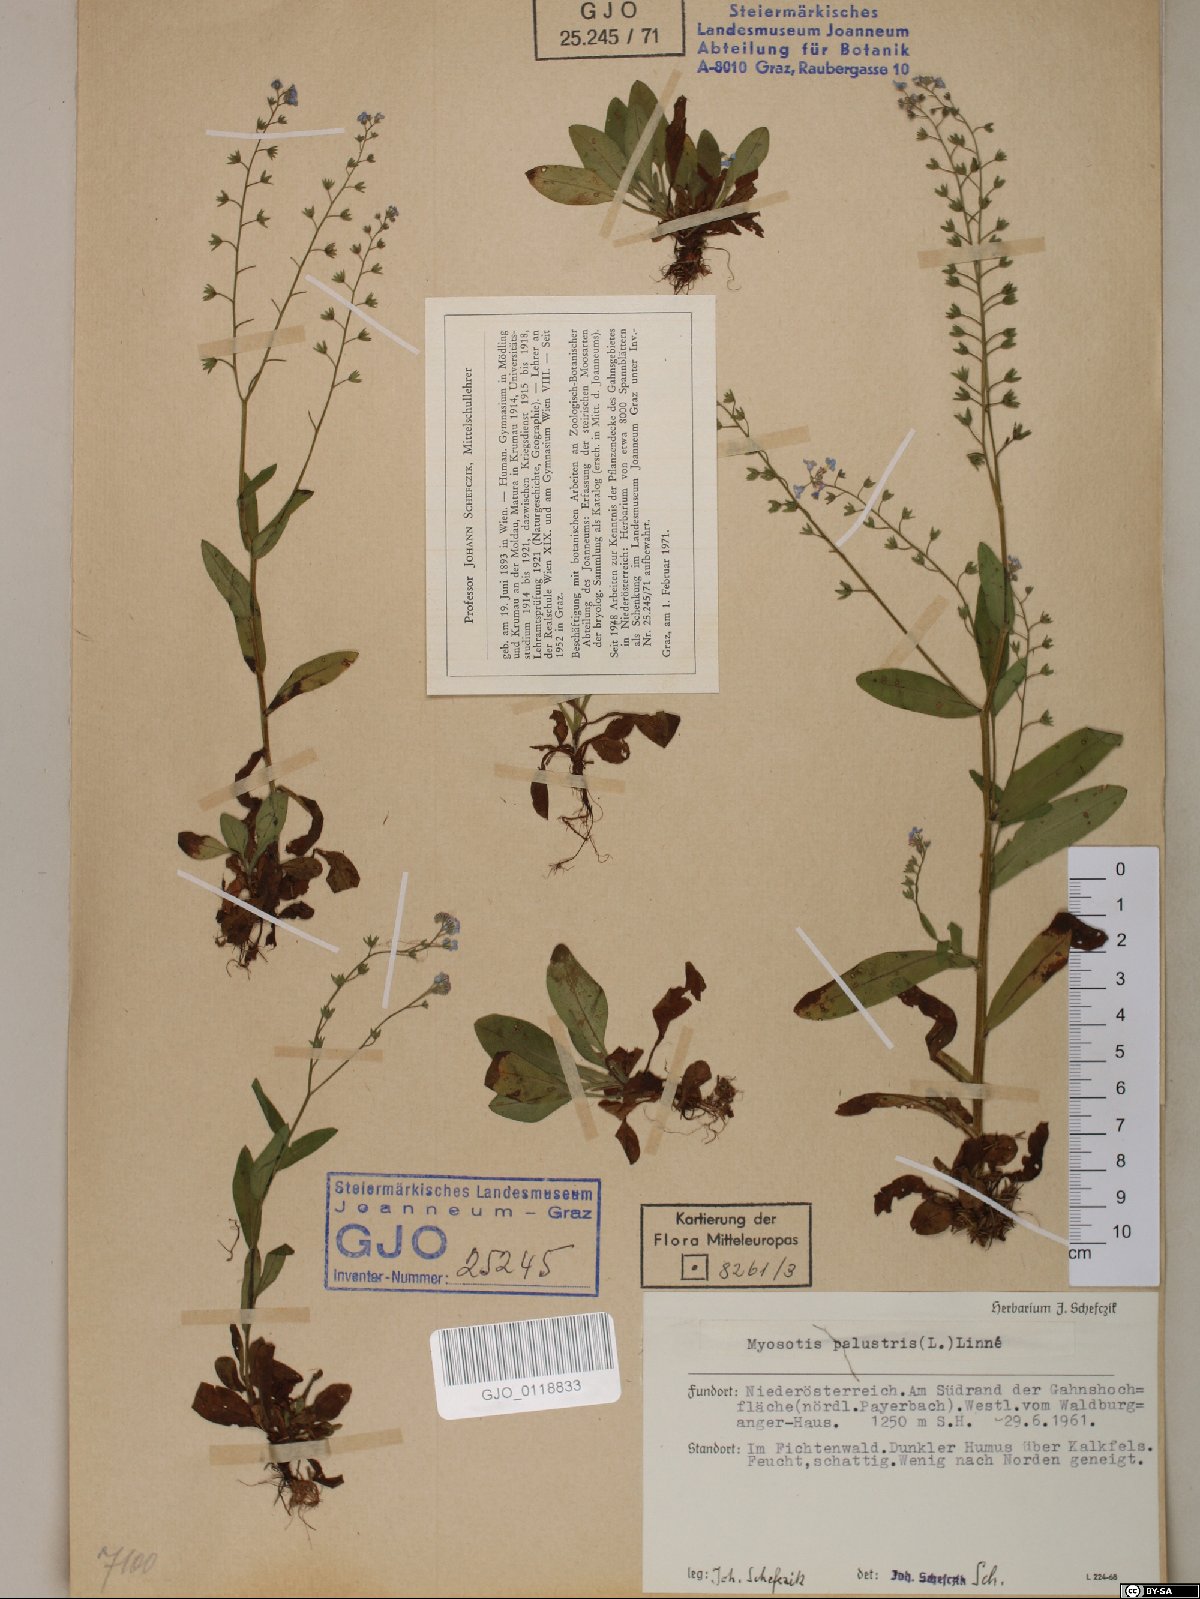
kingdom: Plantae
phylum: Tracheophyta
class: Magnoliopsida
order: Boraginales
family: Boraginaceae
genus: Myosotis
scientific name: Myosotis scorpioides
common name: Water forget-me-not
